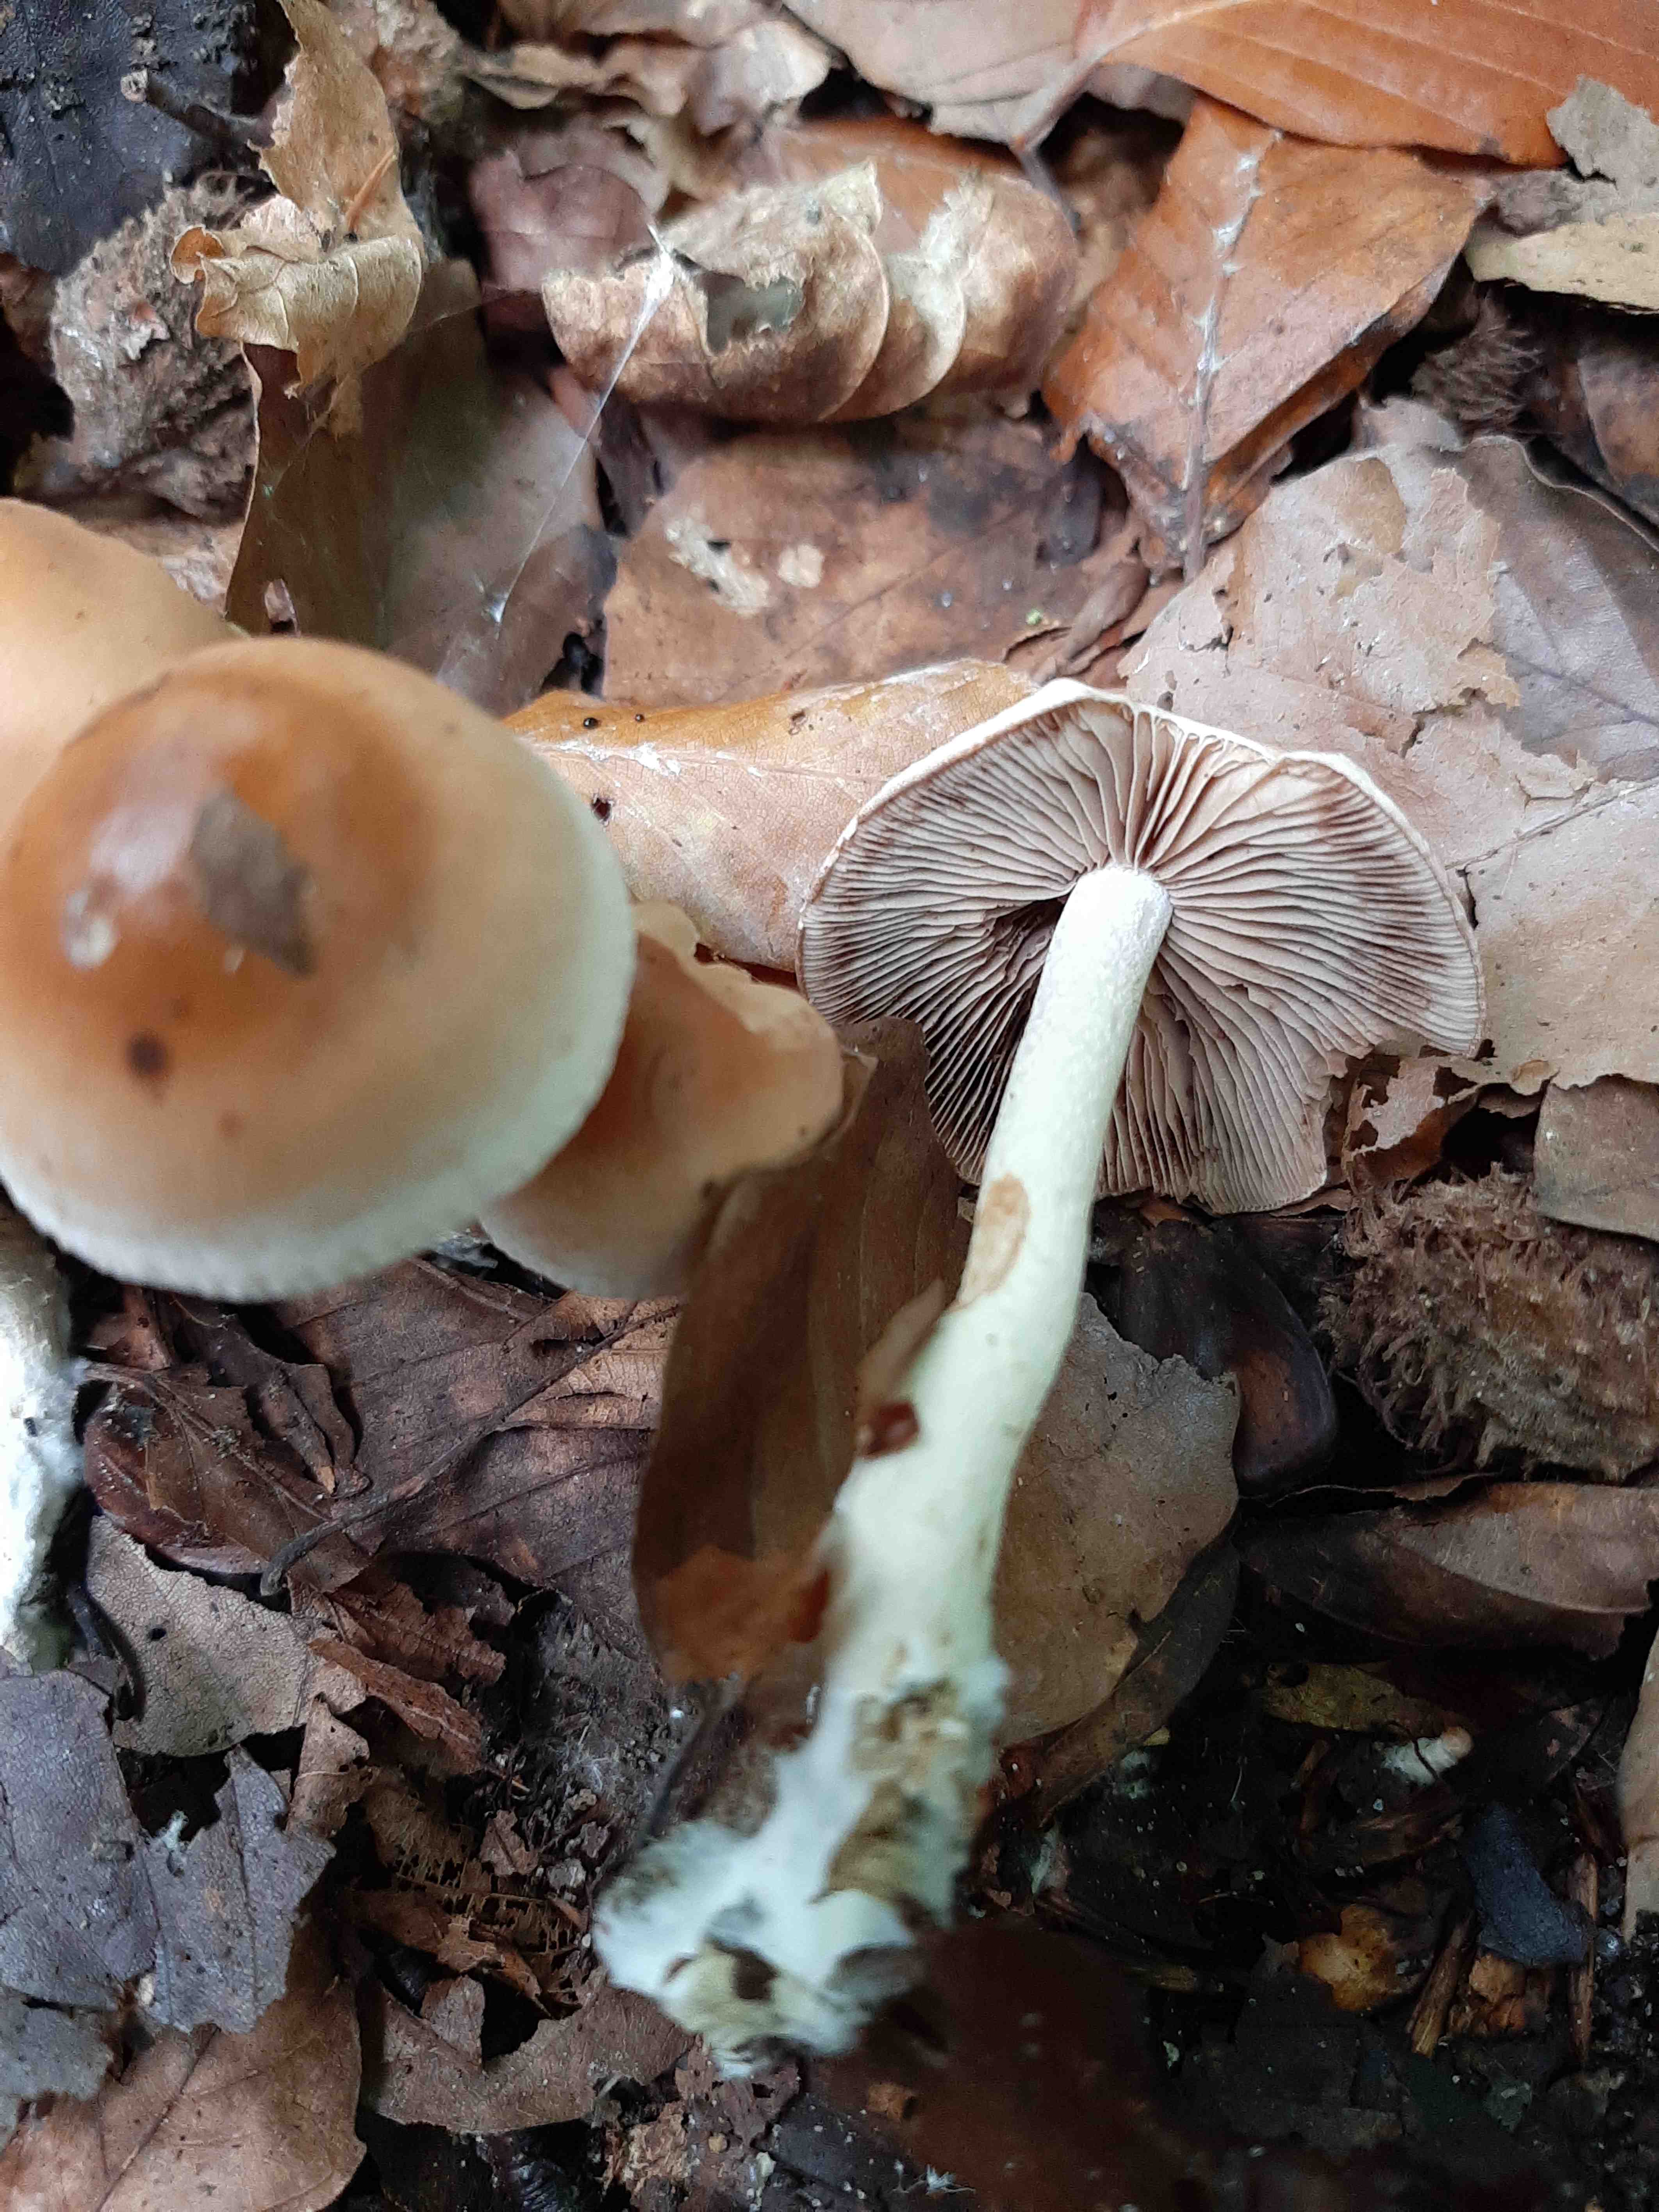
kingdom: Fungi
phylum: Basidiomycota
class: Agaricomycetes
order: Agaricales
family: Hymenogastraceae
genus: Hebeloma
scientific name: Hebeloma
